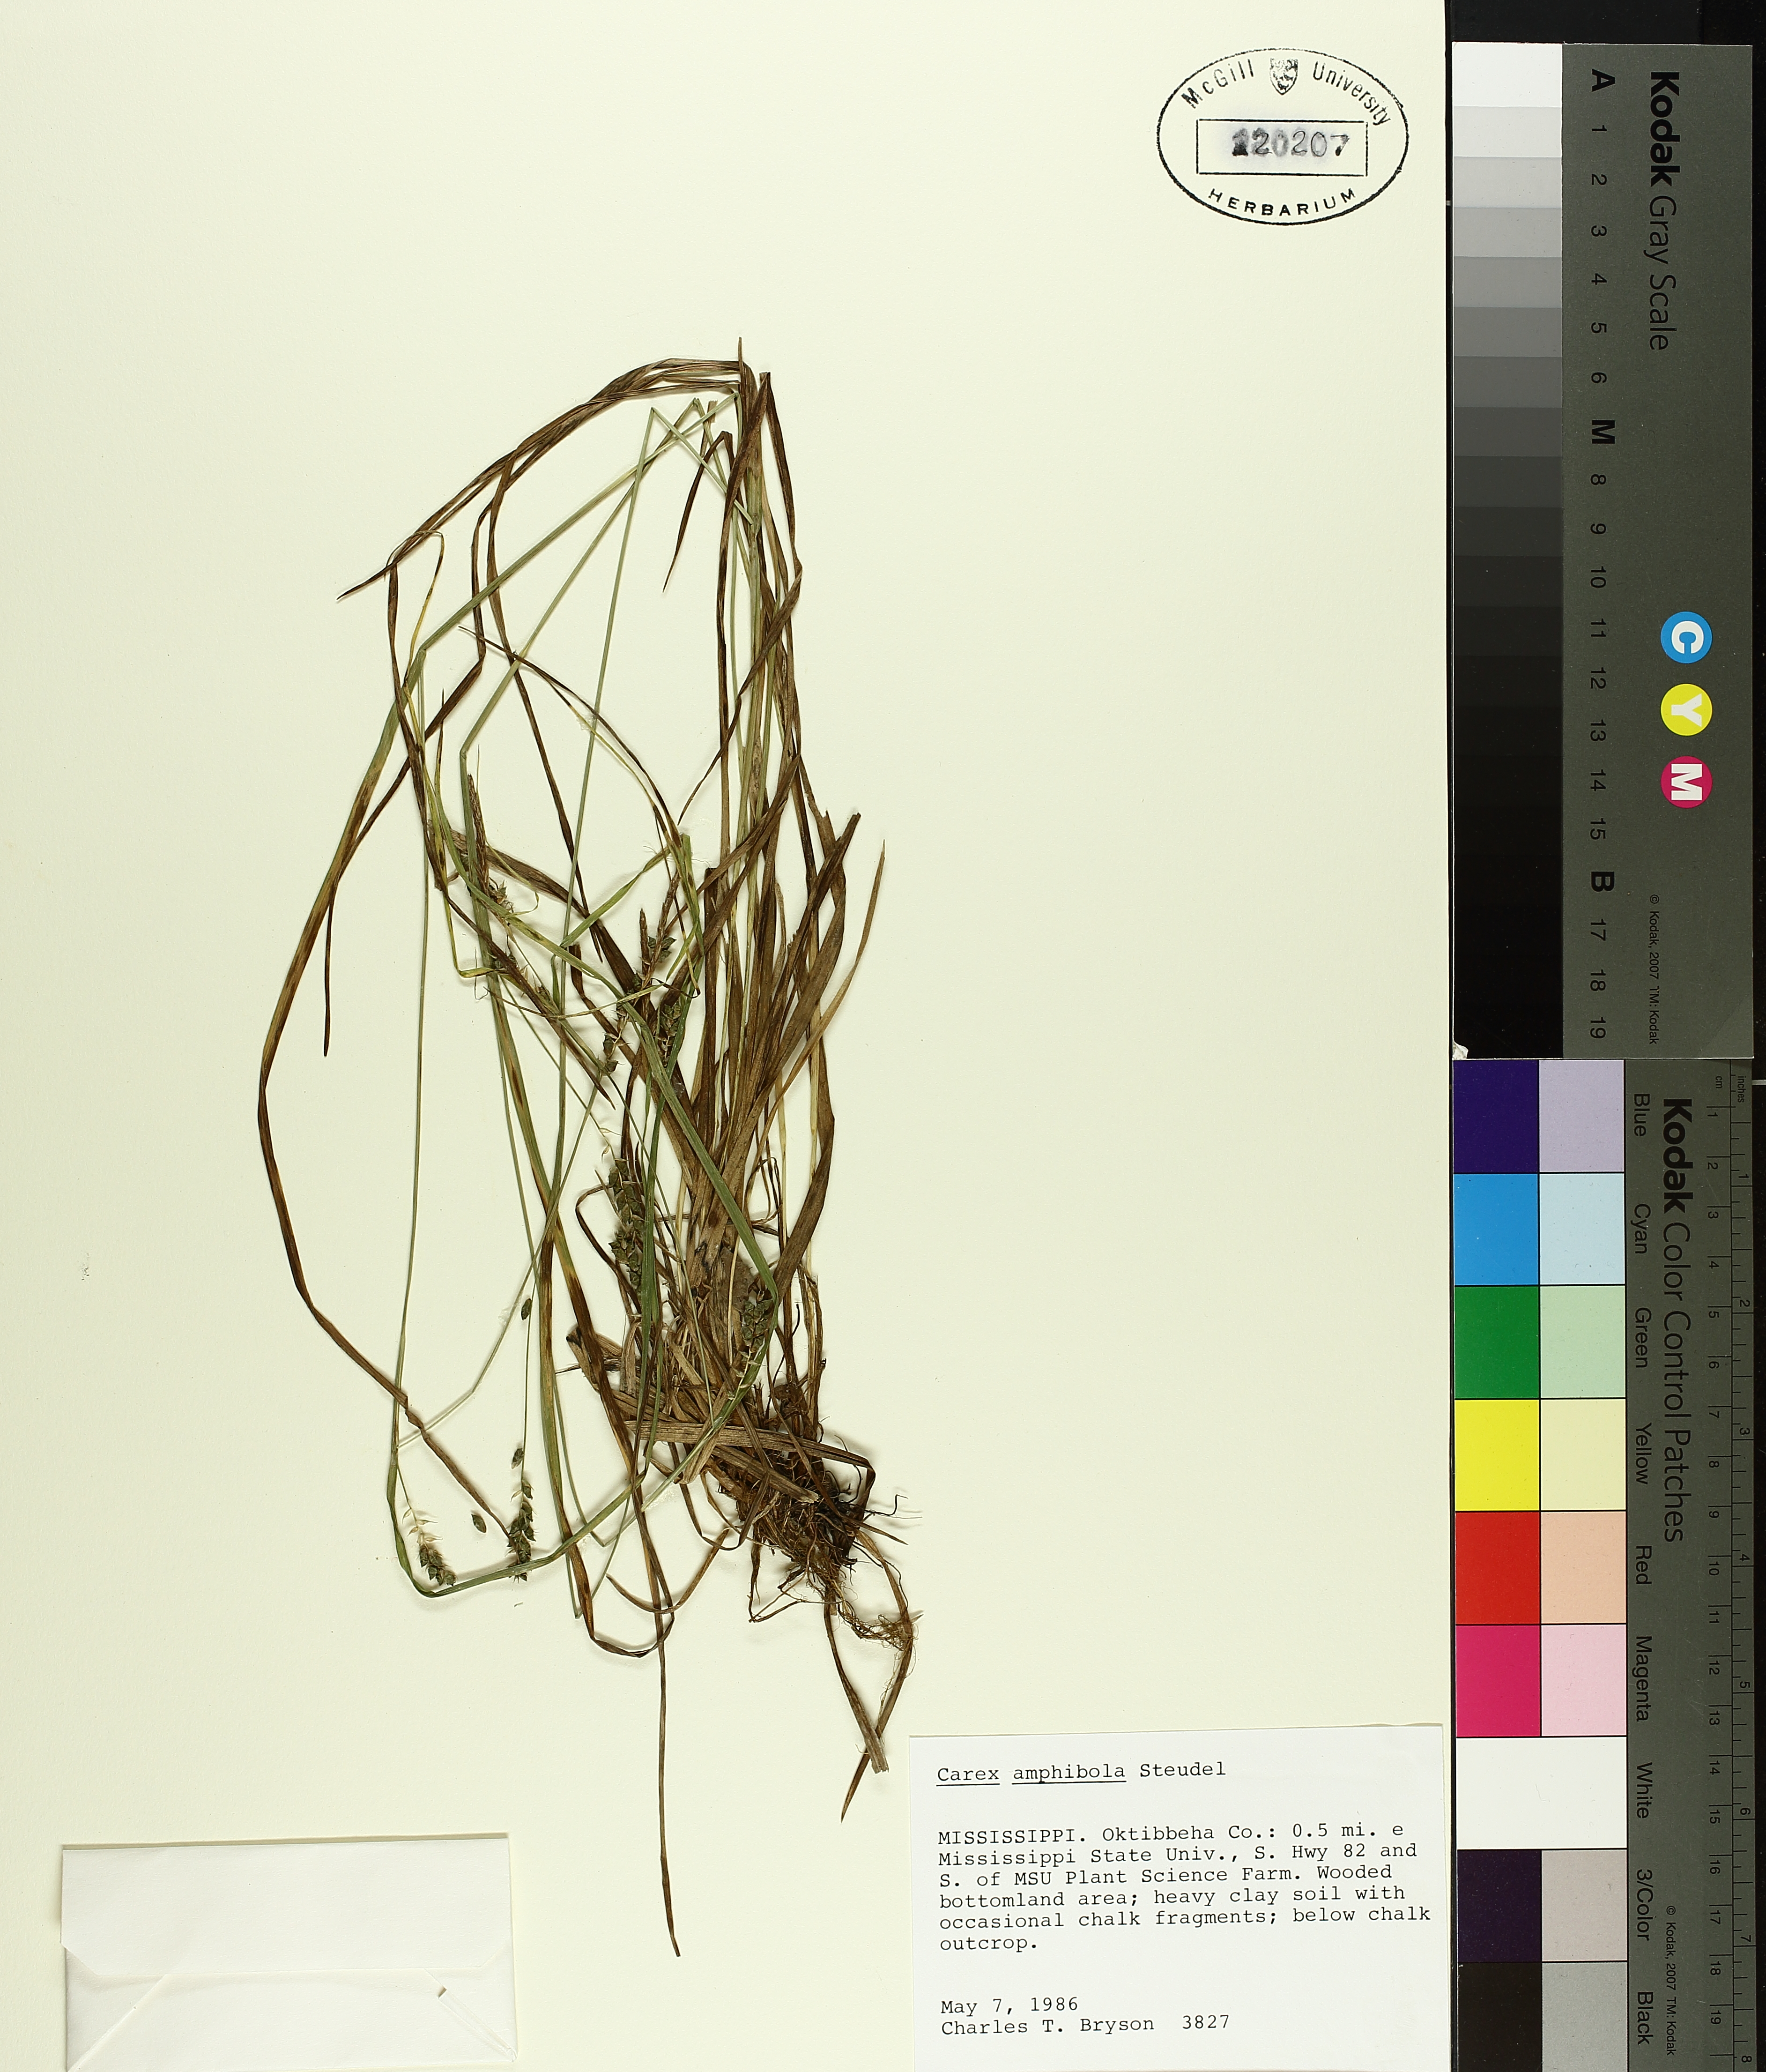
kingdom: Plantae
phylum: Tracheophyta
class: Liliopsida
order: Poales
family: Cyperaceae
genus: Carex
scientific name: Carex amphibola
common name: Amphibious sedge
